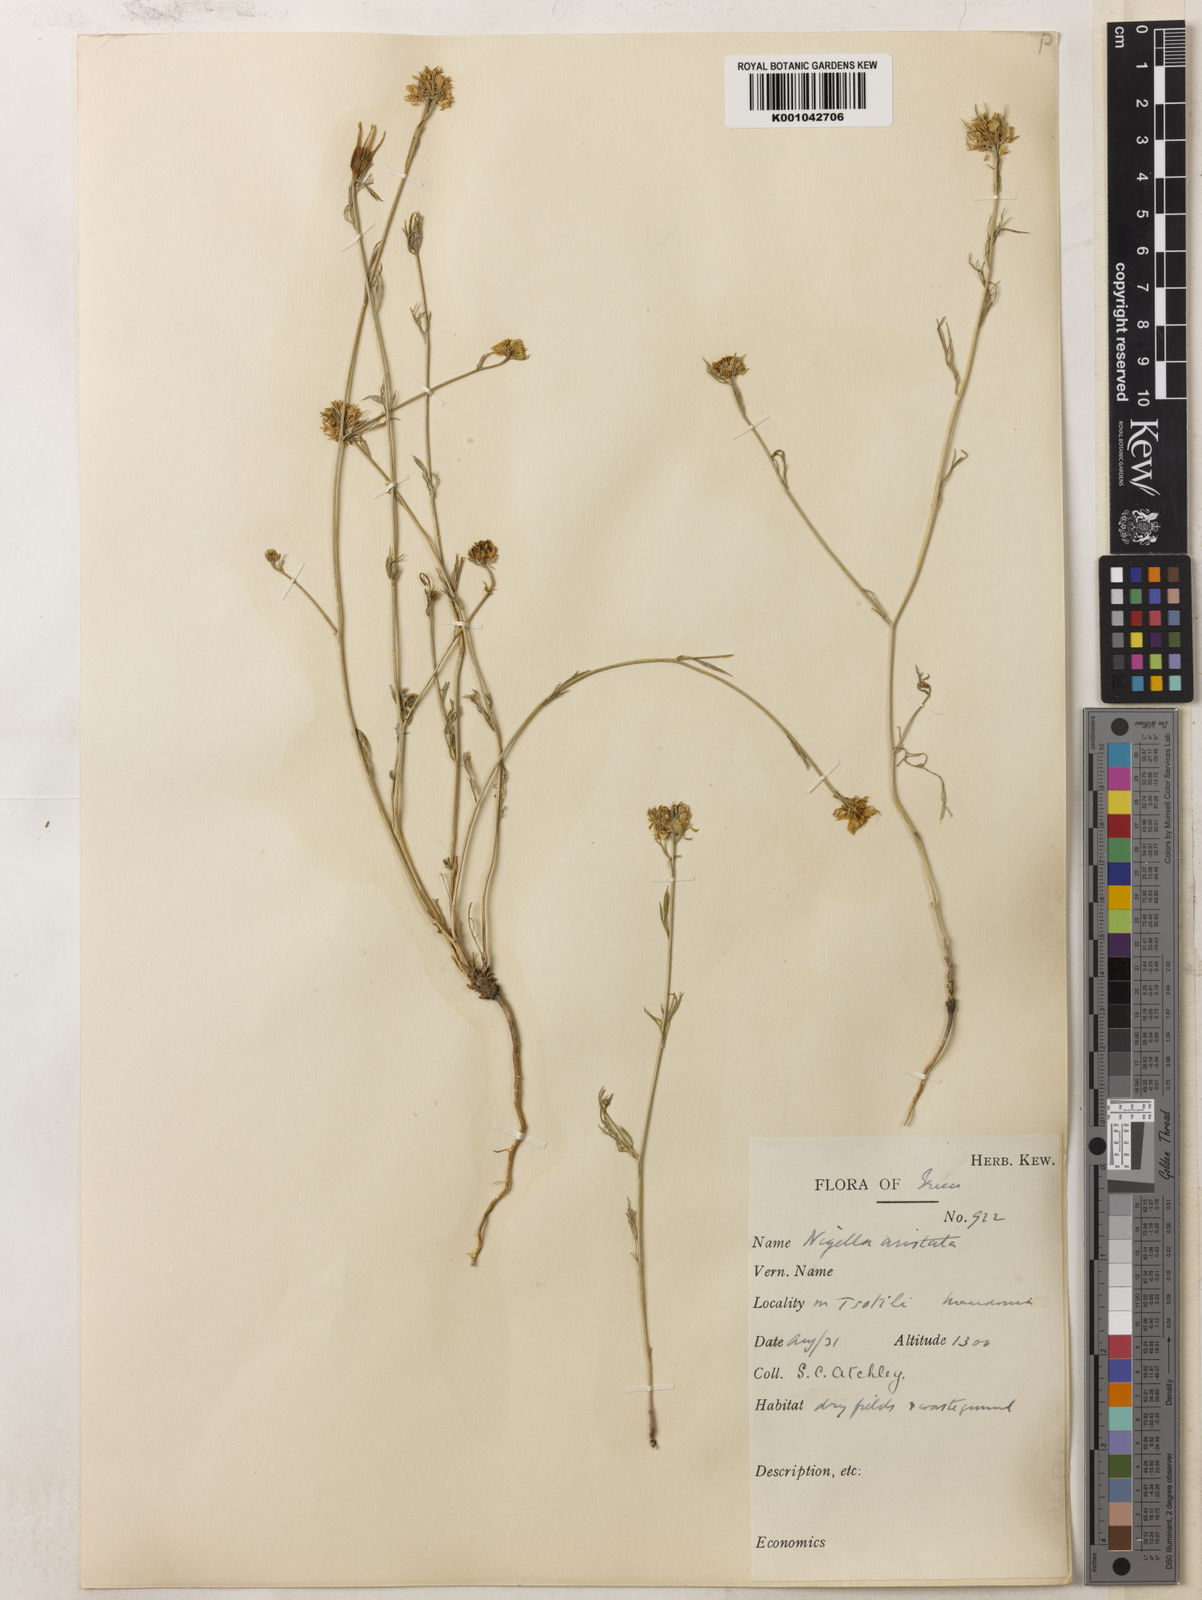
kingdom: Plantae
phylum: Tracheophyta
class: Magnoliopsida
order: Ranunculales
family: Ranunculaceae
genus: Nigella
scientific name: Nigella arvensis
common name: Wild fennel-flower
